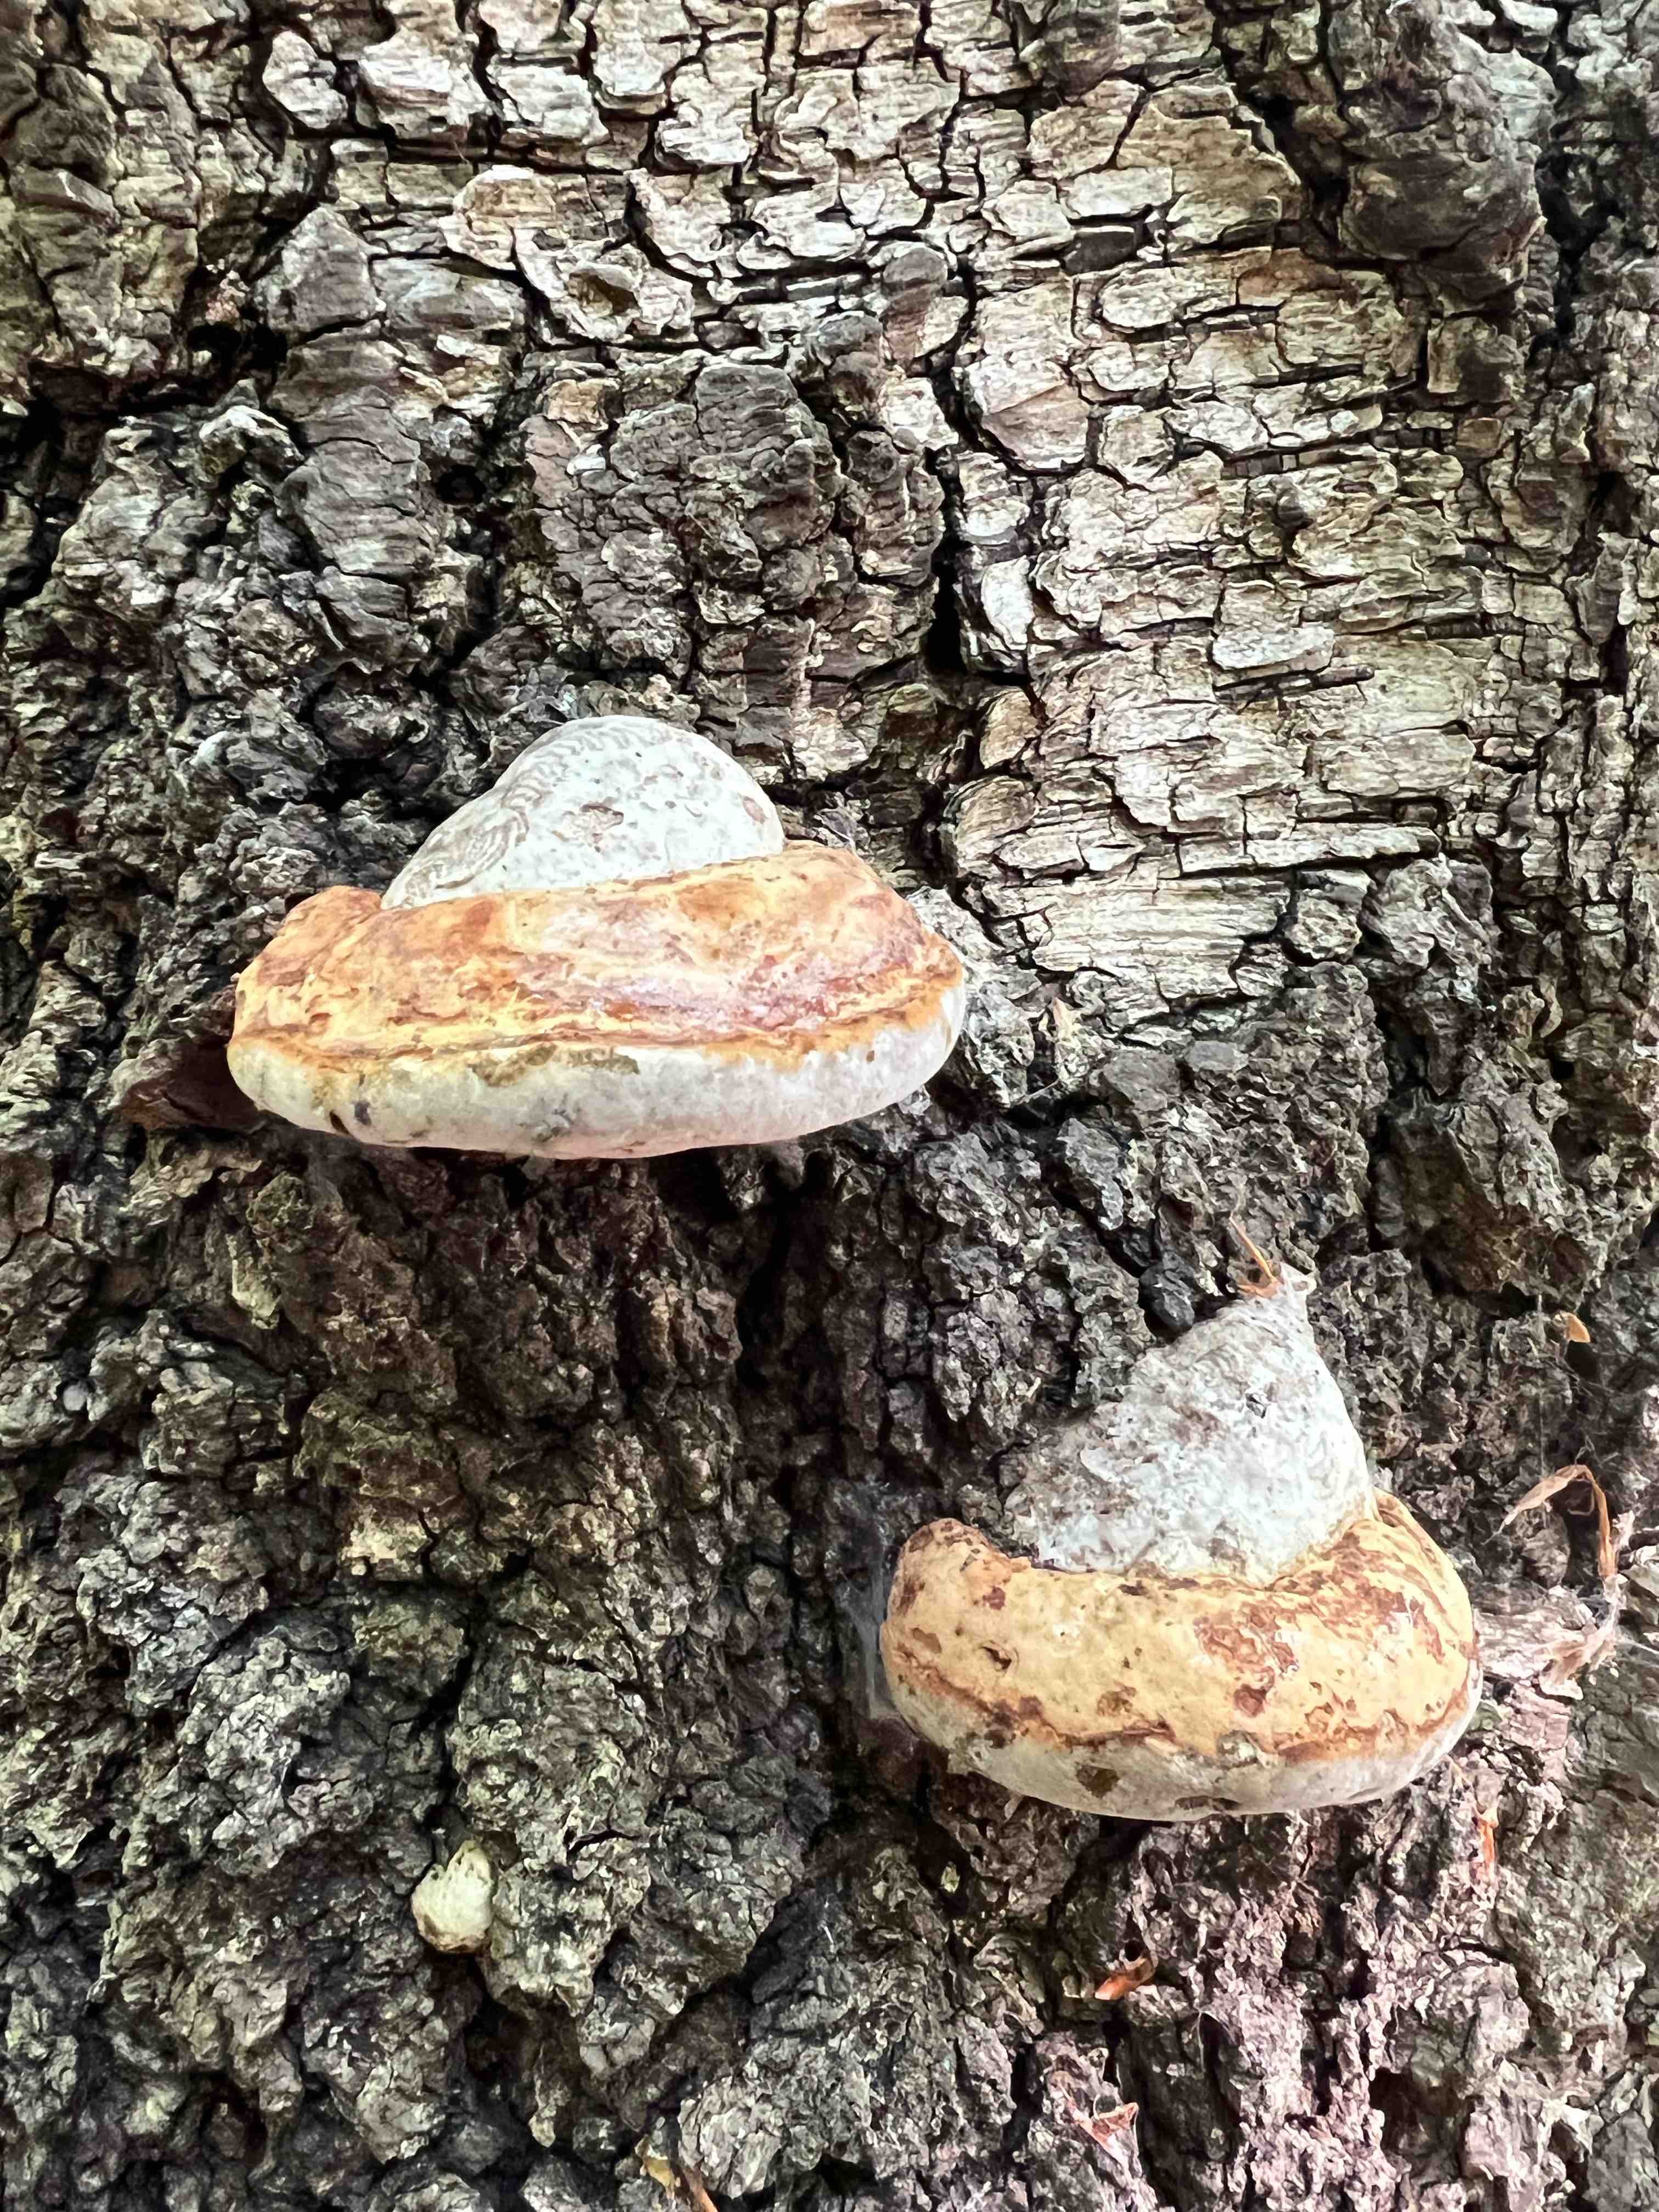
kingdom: Fungi
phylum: Basidiomycota
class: Agaricomycetes
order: Polyporales
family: Polyporaceae
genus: Fomes
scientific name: Fomes fomentarius
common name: tøndersvamp
